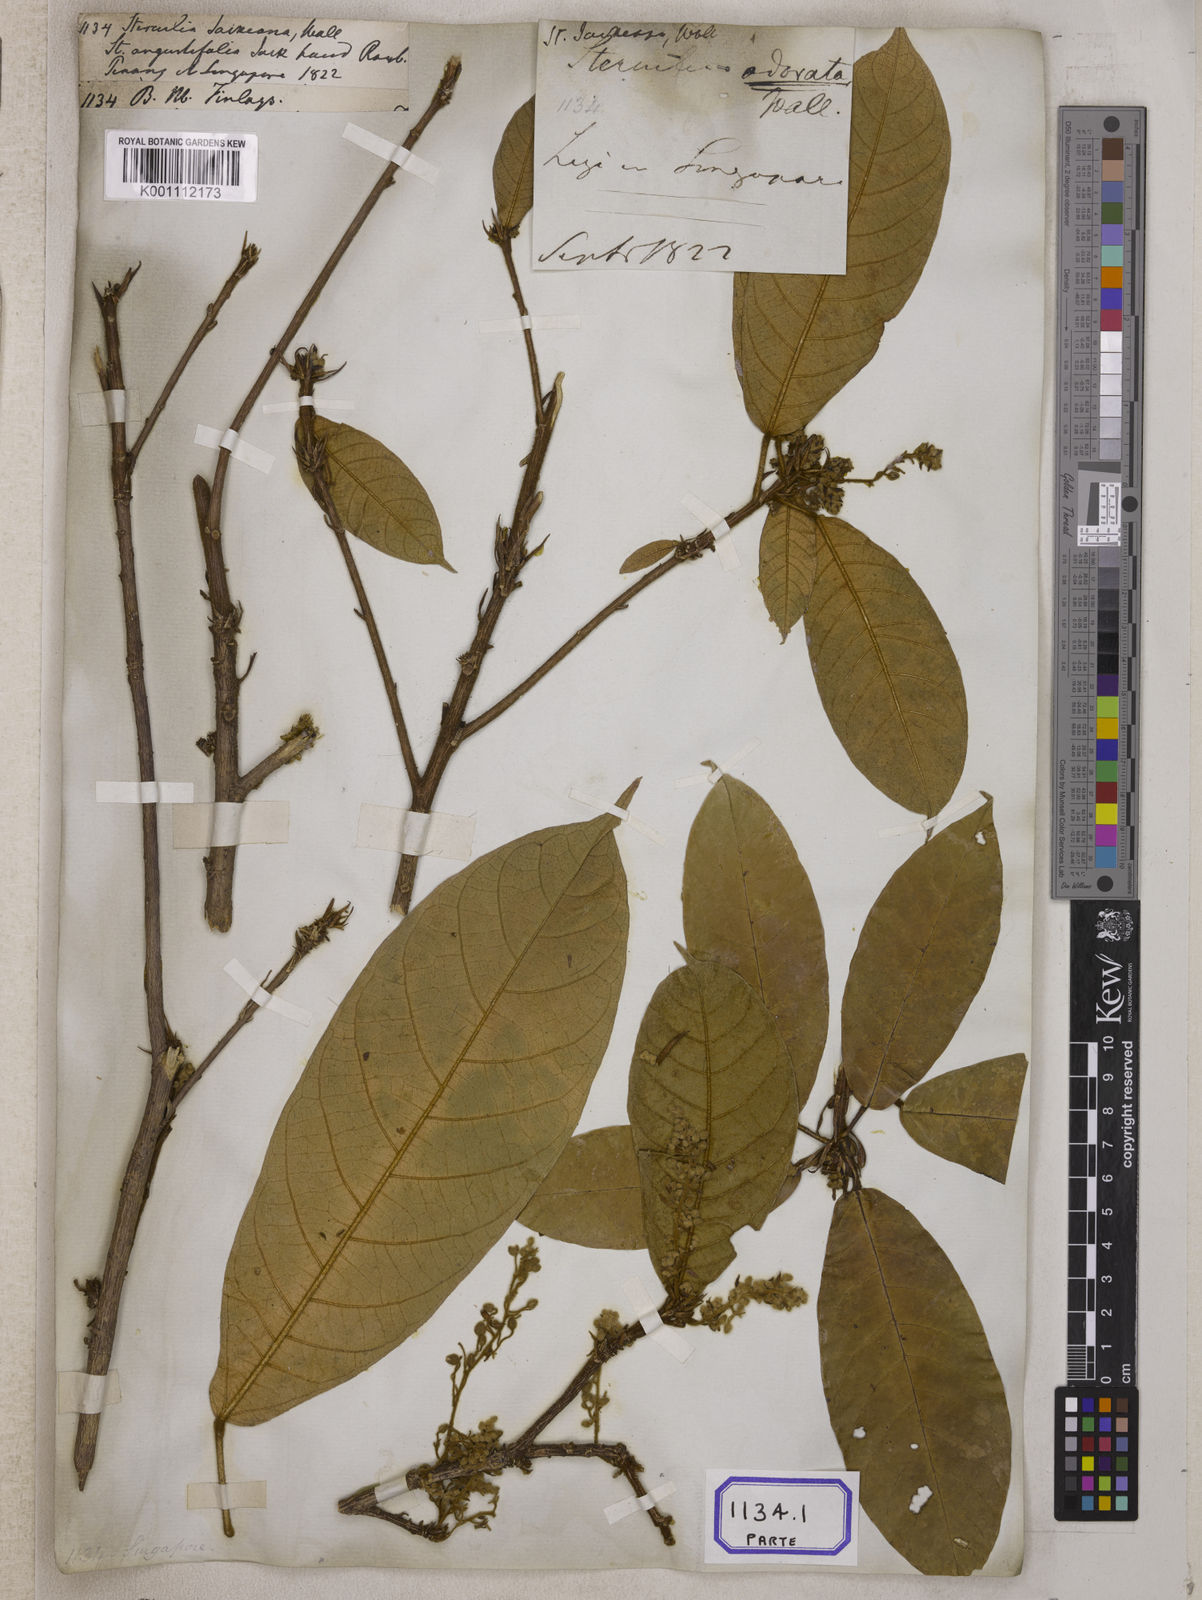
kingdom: Plantae
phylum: Tracheophyta
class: Magnoliopsida
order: Malvales
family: Malvaceae
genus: Sterculia
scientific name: Sterculia rubiginosa
